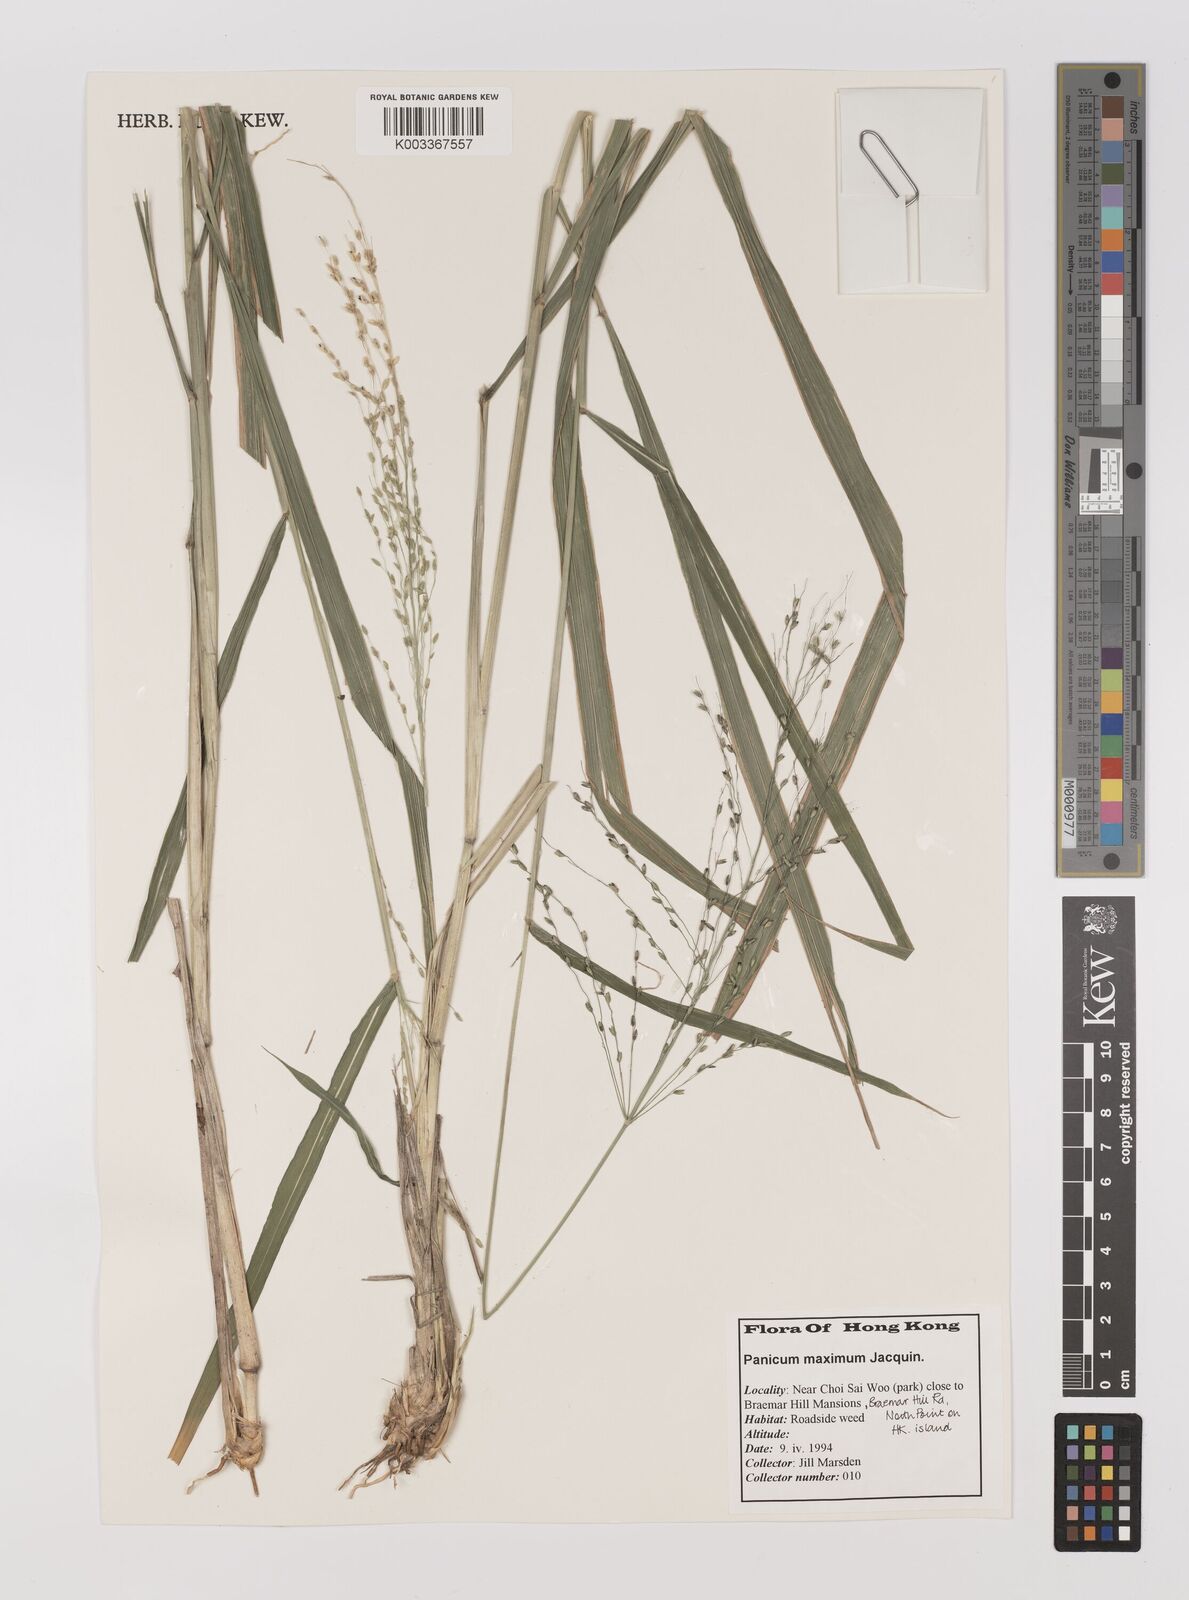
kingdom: Plantae
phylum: Tracheophyta
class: Liliopsida
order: Poales
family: Poaceae
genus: Megathyrsus
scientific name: Megathyrsus maximus
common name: Guineagrass
